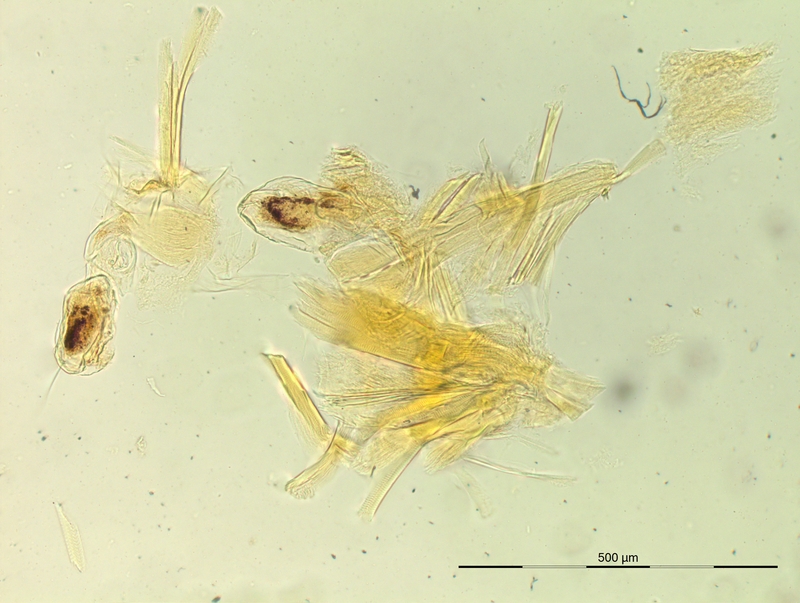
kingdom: Animalia
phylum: Arthropoda
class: Diplopoda
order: Chordeumatida
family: Opisthocheiridae
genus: Marquetia
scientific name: Marquetia pyrenaicum
